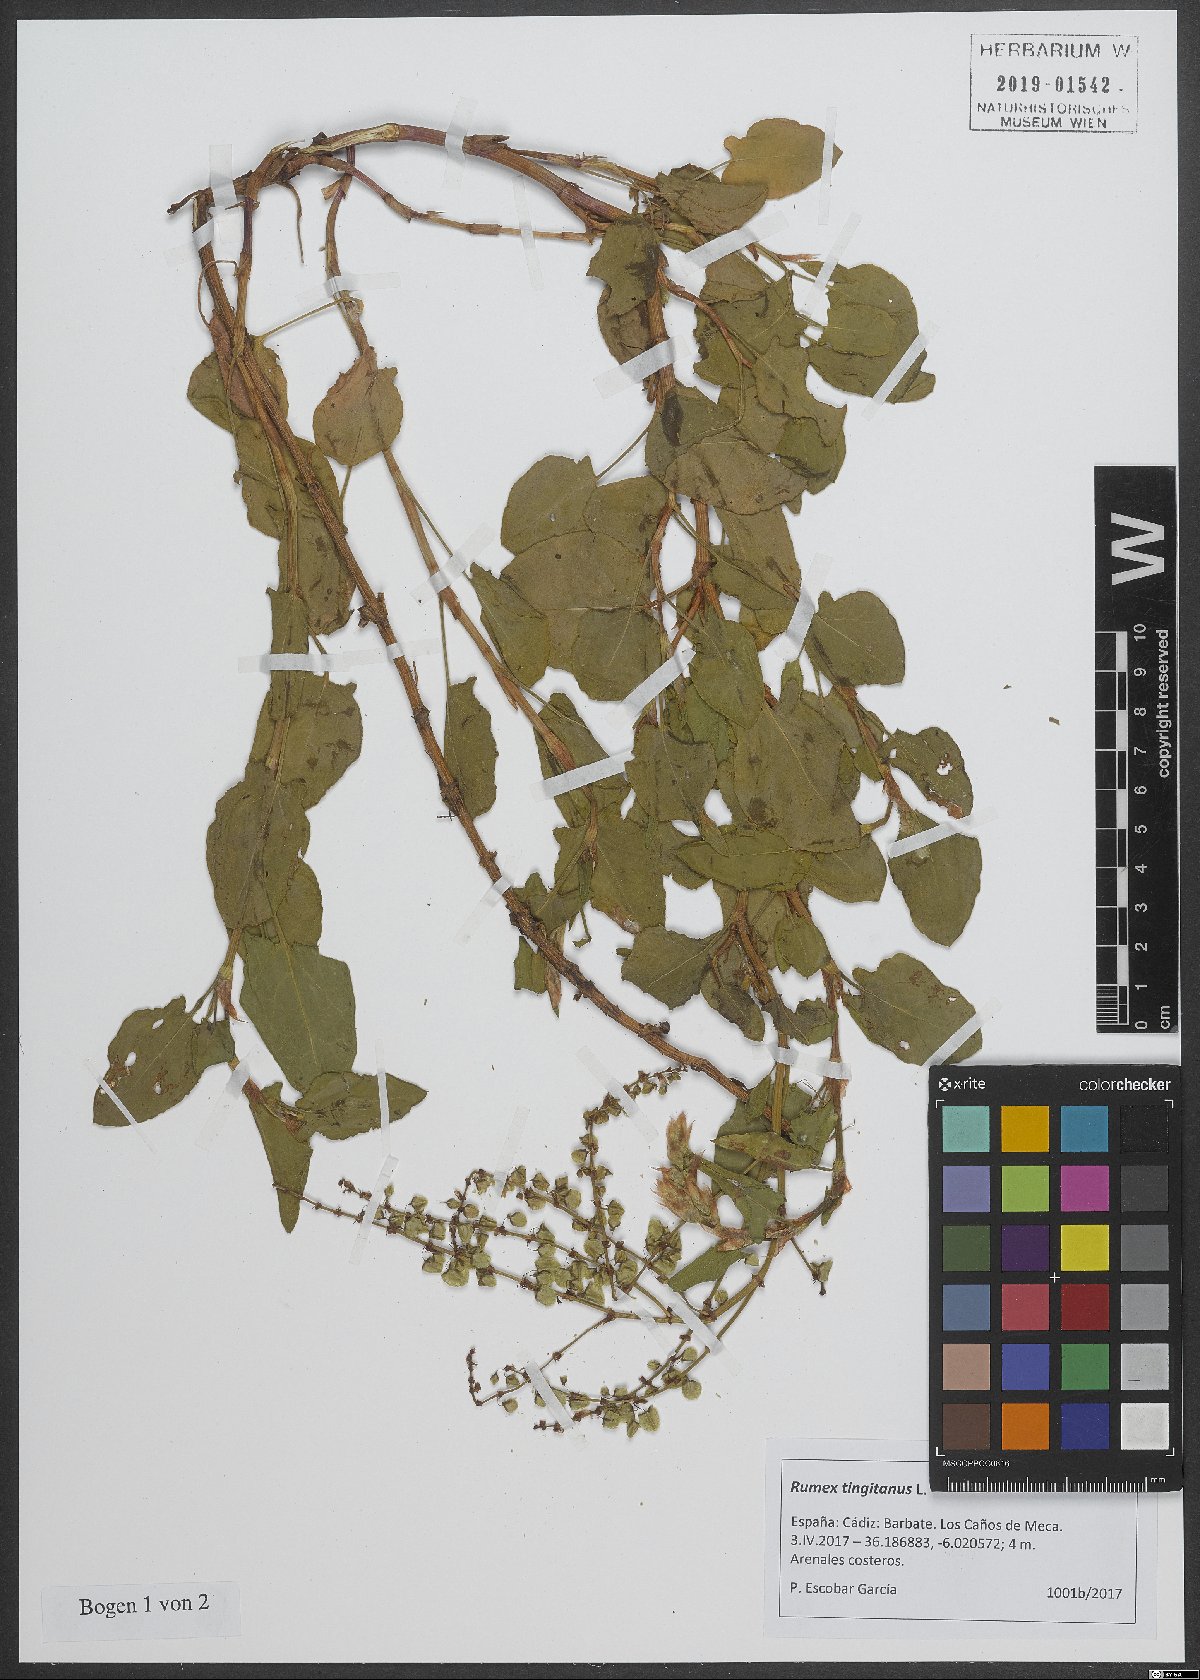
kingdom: Plantae
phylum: Tracheophyta
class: Magnoliopsida
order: Caryophyllales
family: Polygonaceae
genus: Rumex
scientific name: Rumex roseus
